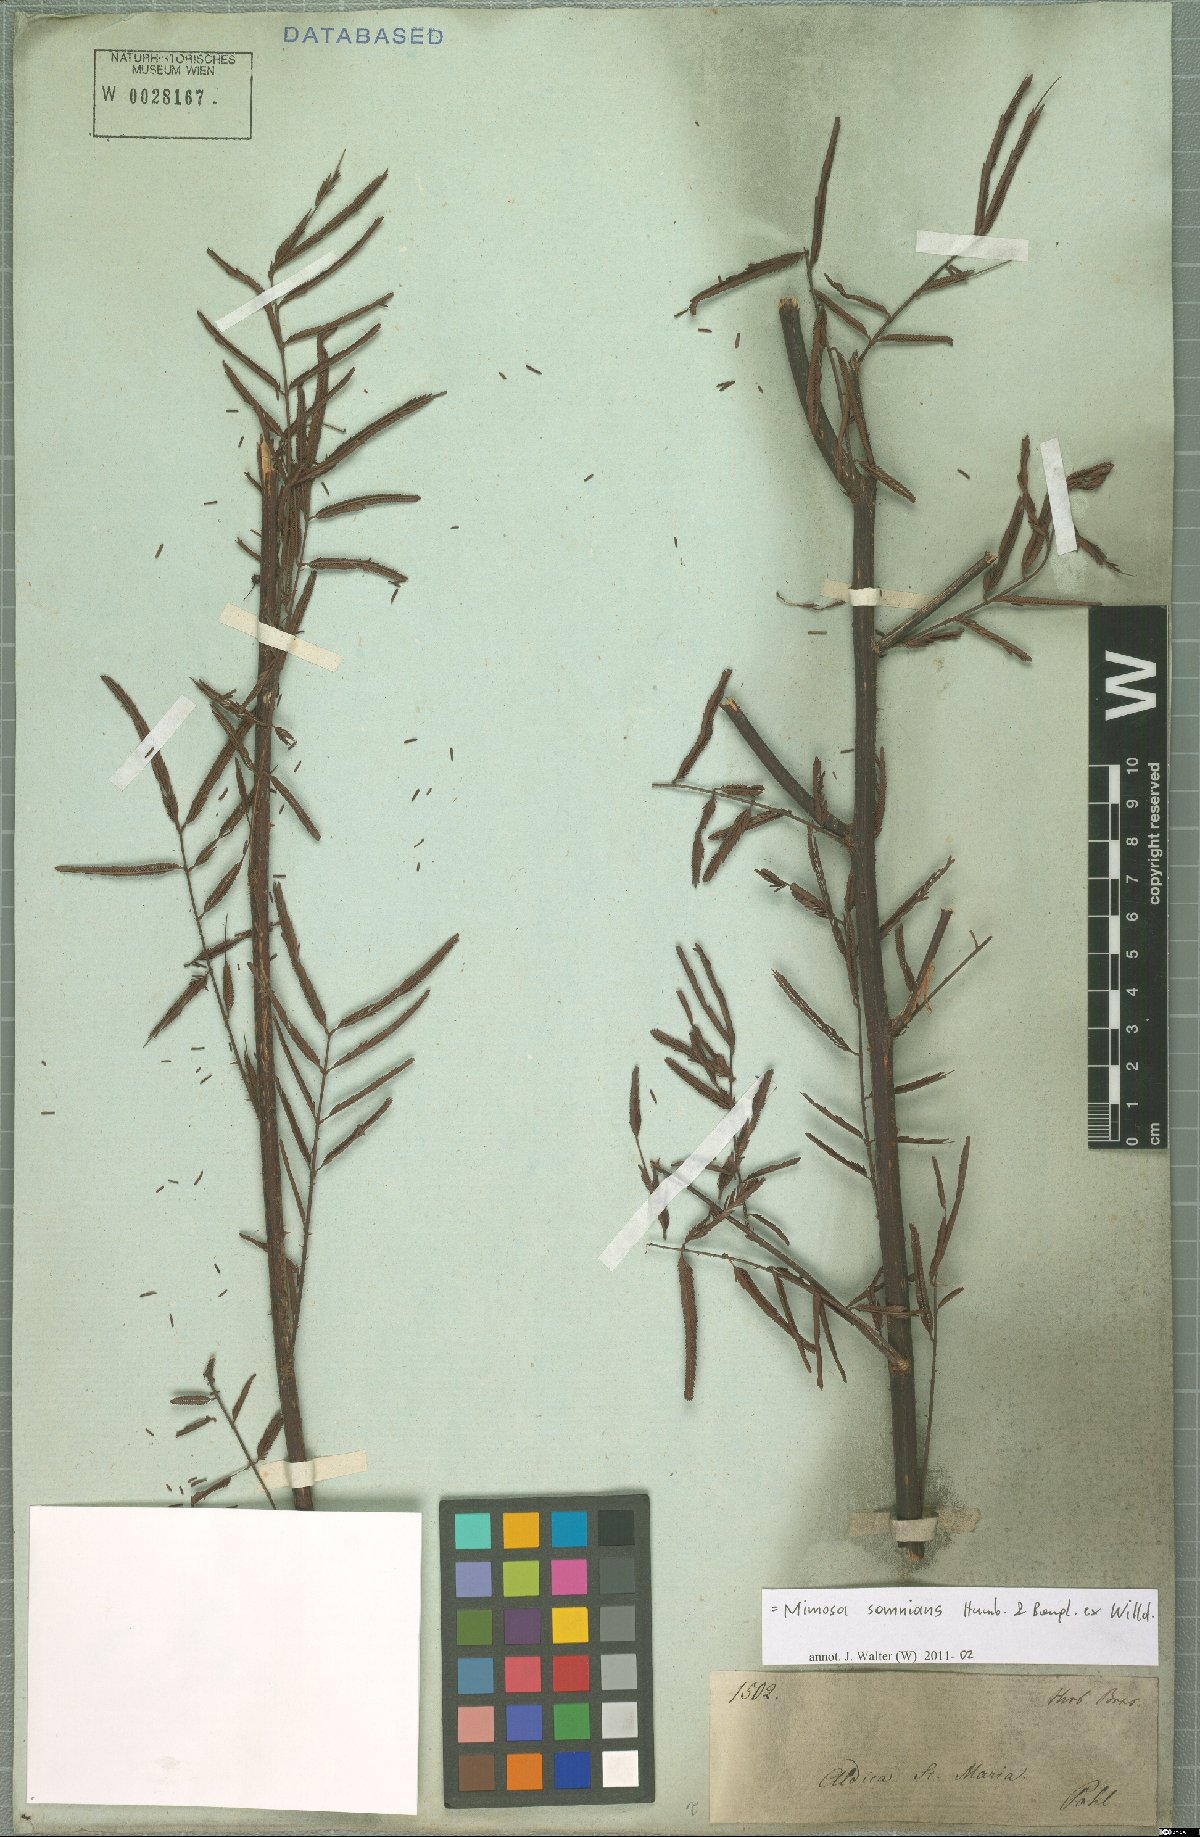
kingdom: Plantae
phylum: Tracheophyta
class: Magnoliopsida
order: Fabales
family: Fabaceae
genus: Mimosa
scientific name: Mimosa somnians
